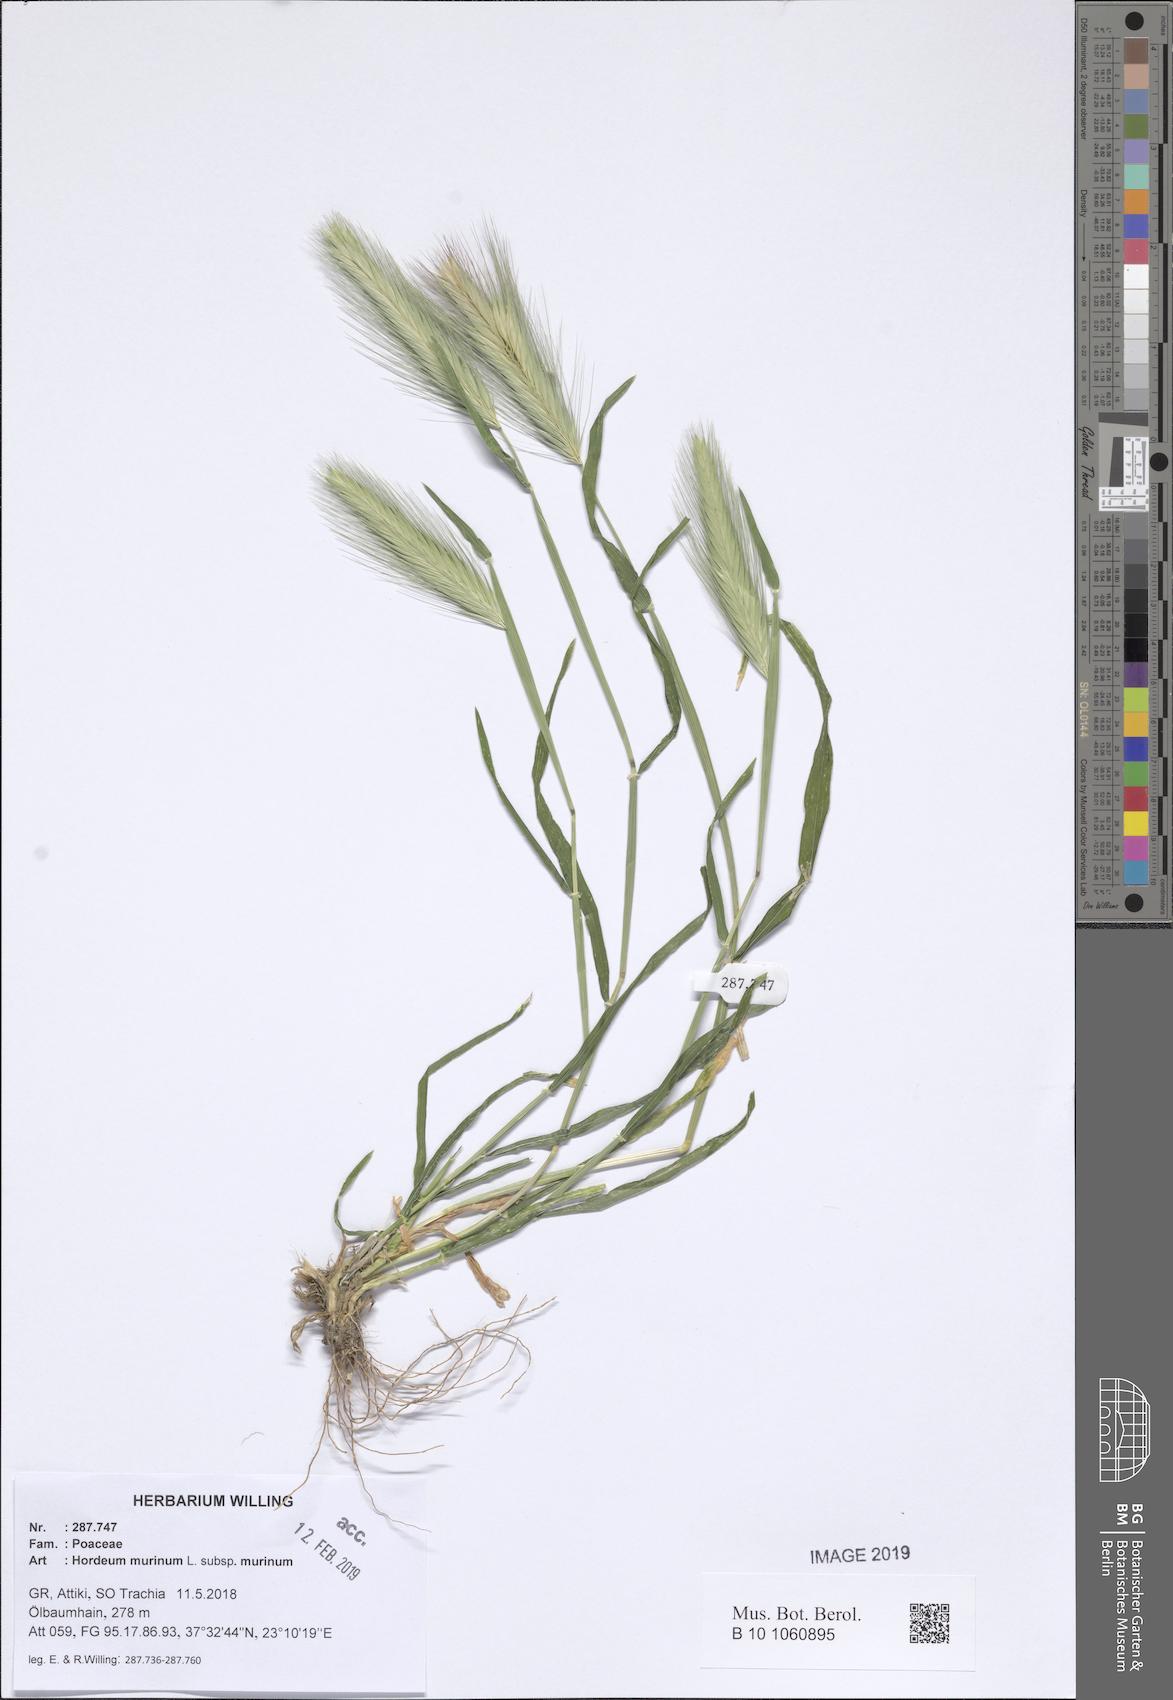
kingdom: Plantae
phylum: Tracheophyta
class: Liliopsida
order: Poales
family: Poaceae
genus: Hordeum
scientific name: Hordeum murinum
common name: Wall barley
